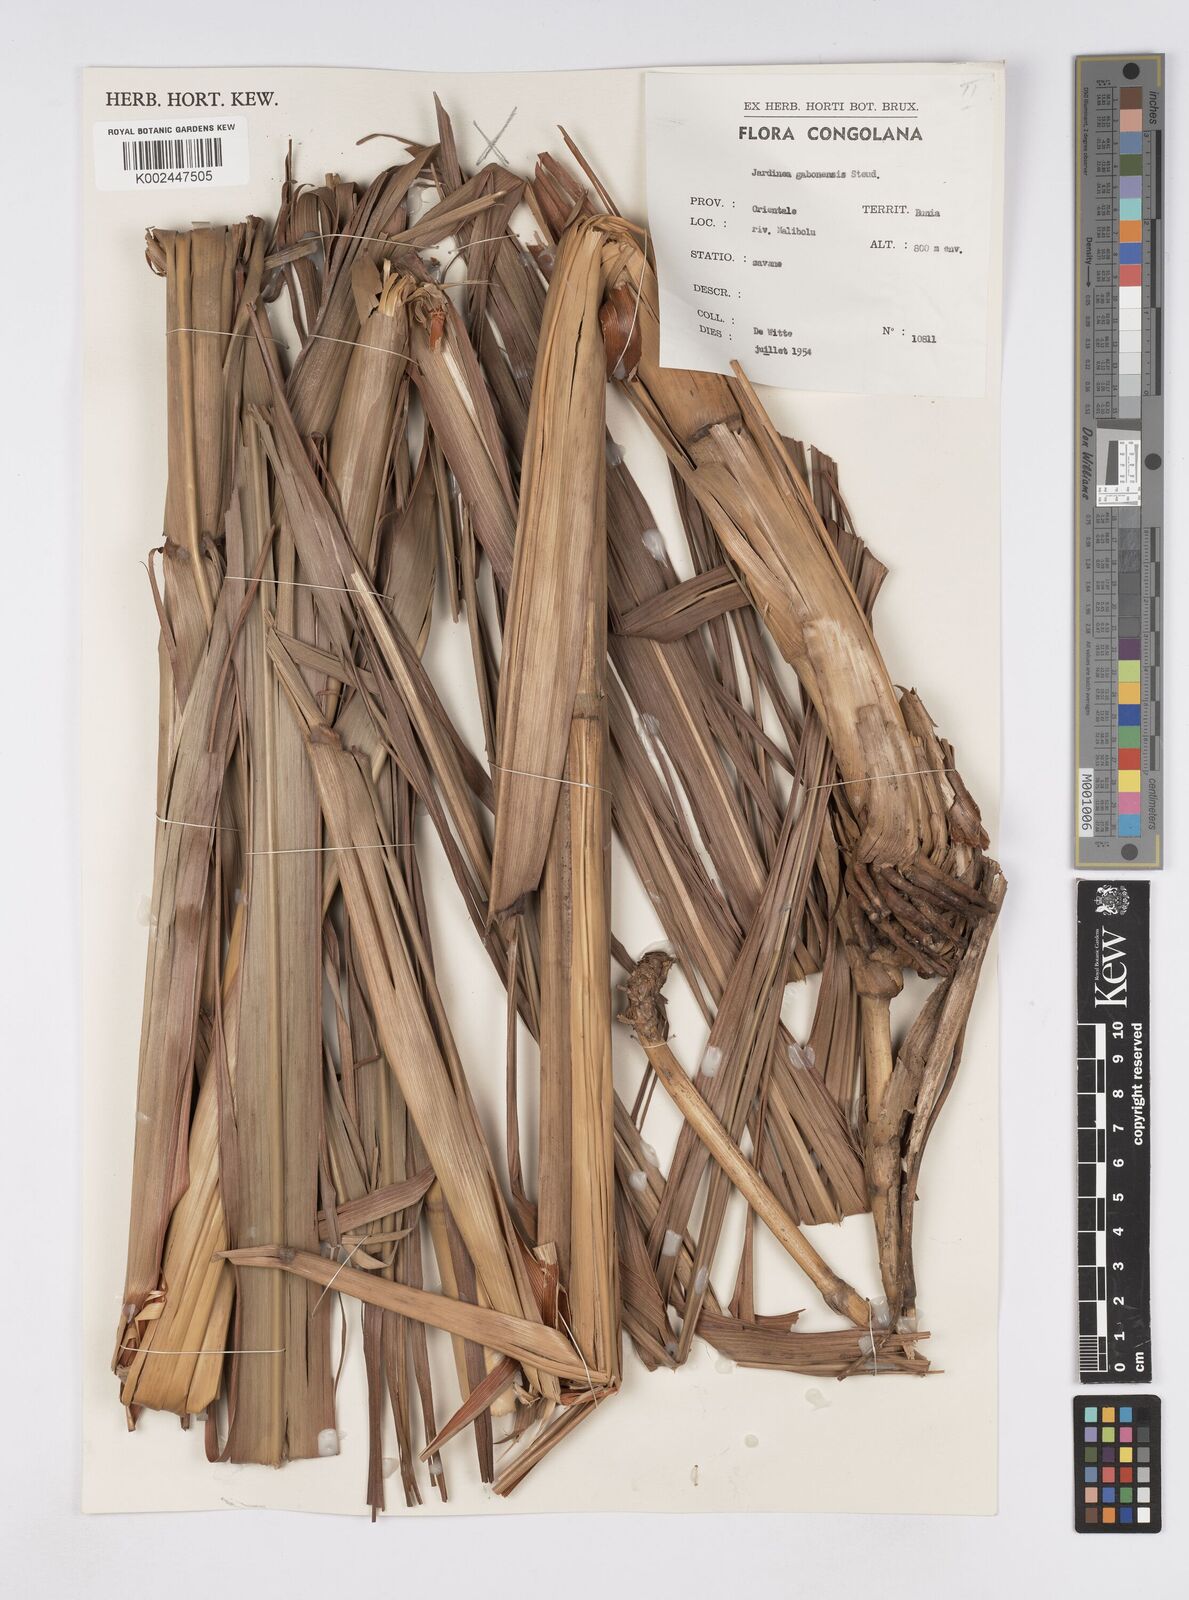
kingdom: Plantae
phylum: Tracheophyta
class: Liliopsida
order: Poales
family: Poaceae
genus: Urelytrum
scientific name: Urelytrum giganteum
